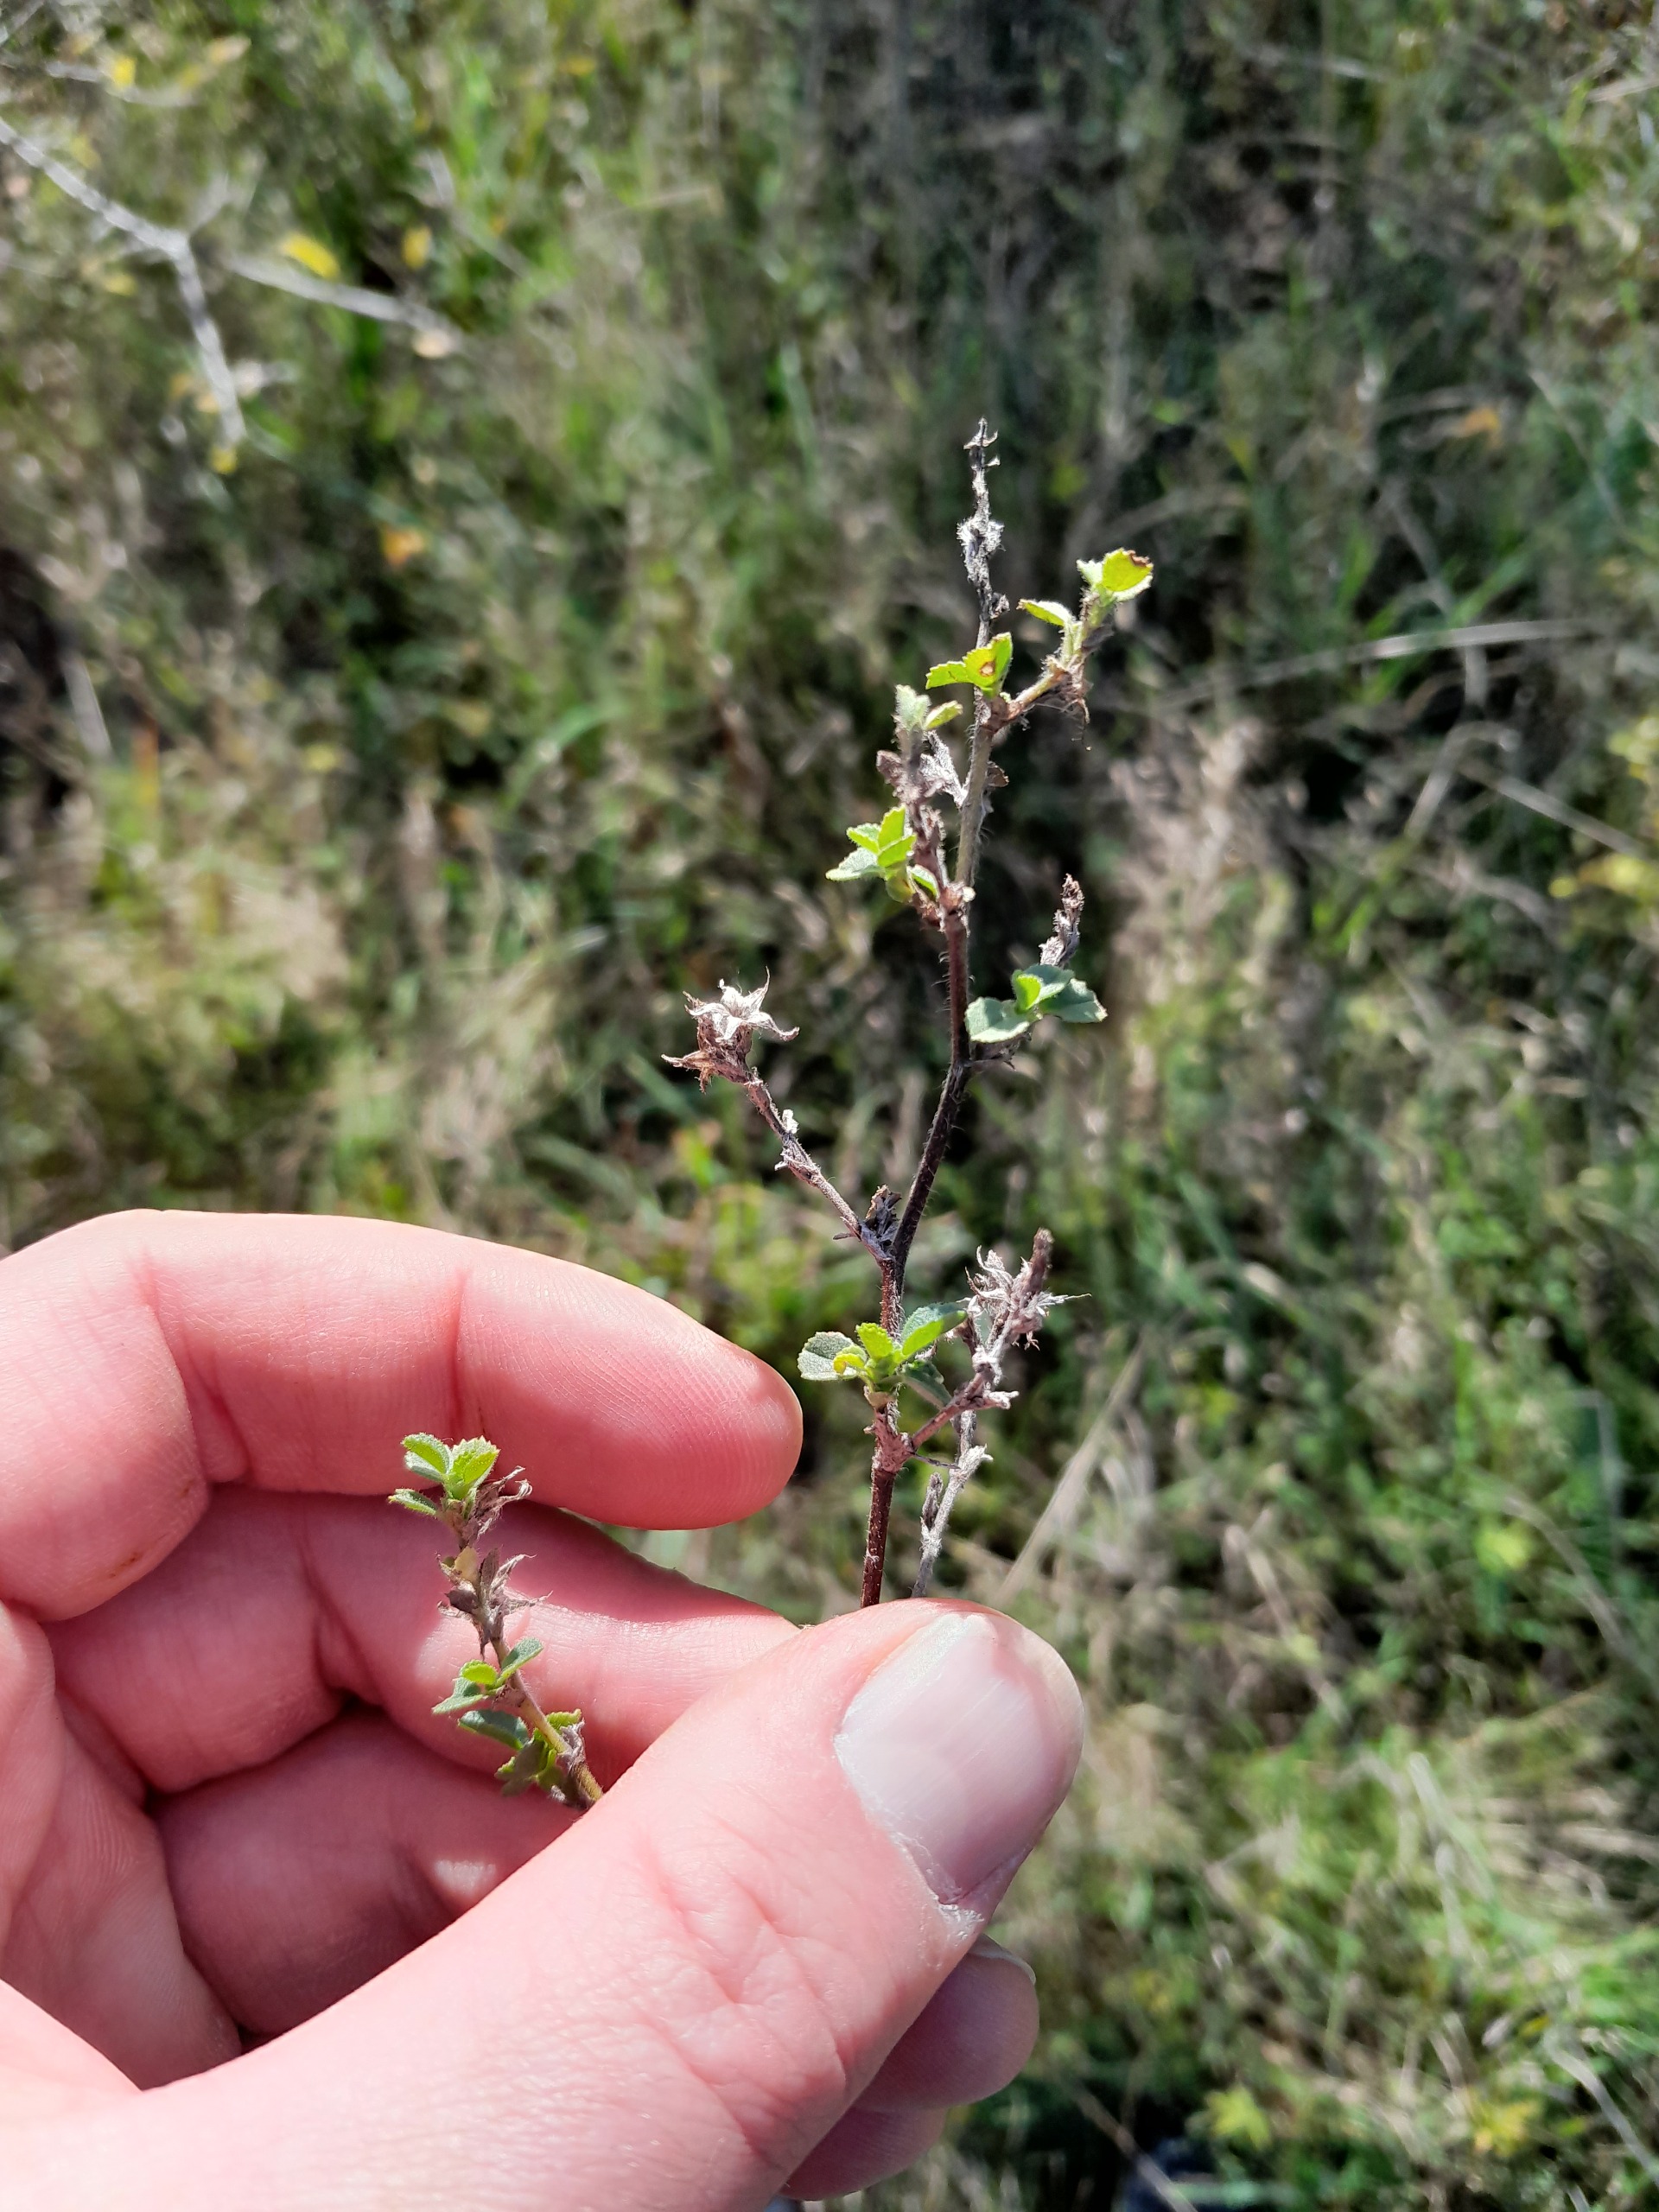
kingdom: Plantae
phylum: Tracheophyta
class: Magnoliopsida
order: Fabales
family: Fabaceae
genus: Ononis
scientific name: Ononis spinosa
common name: Mark-krageklo
